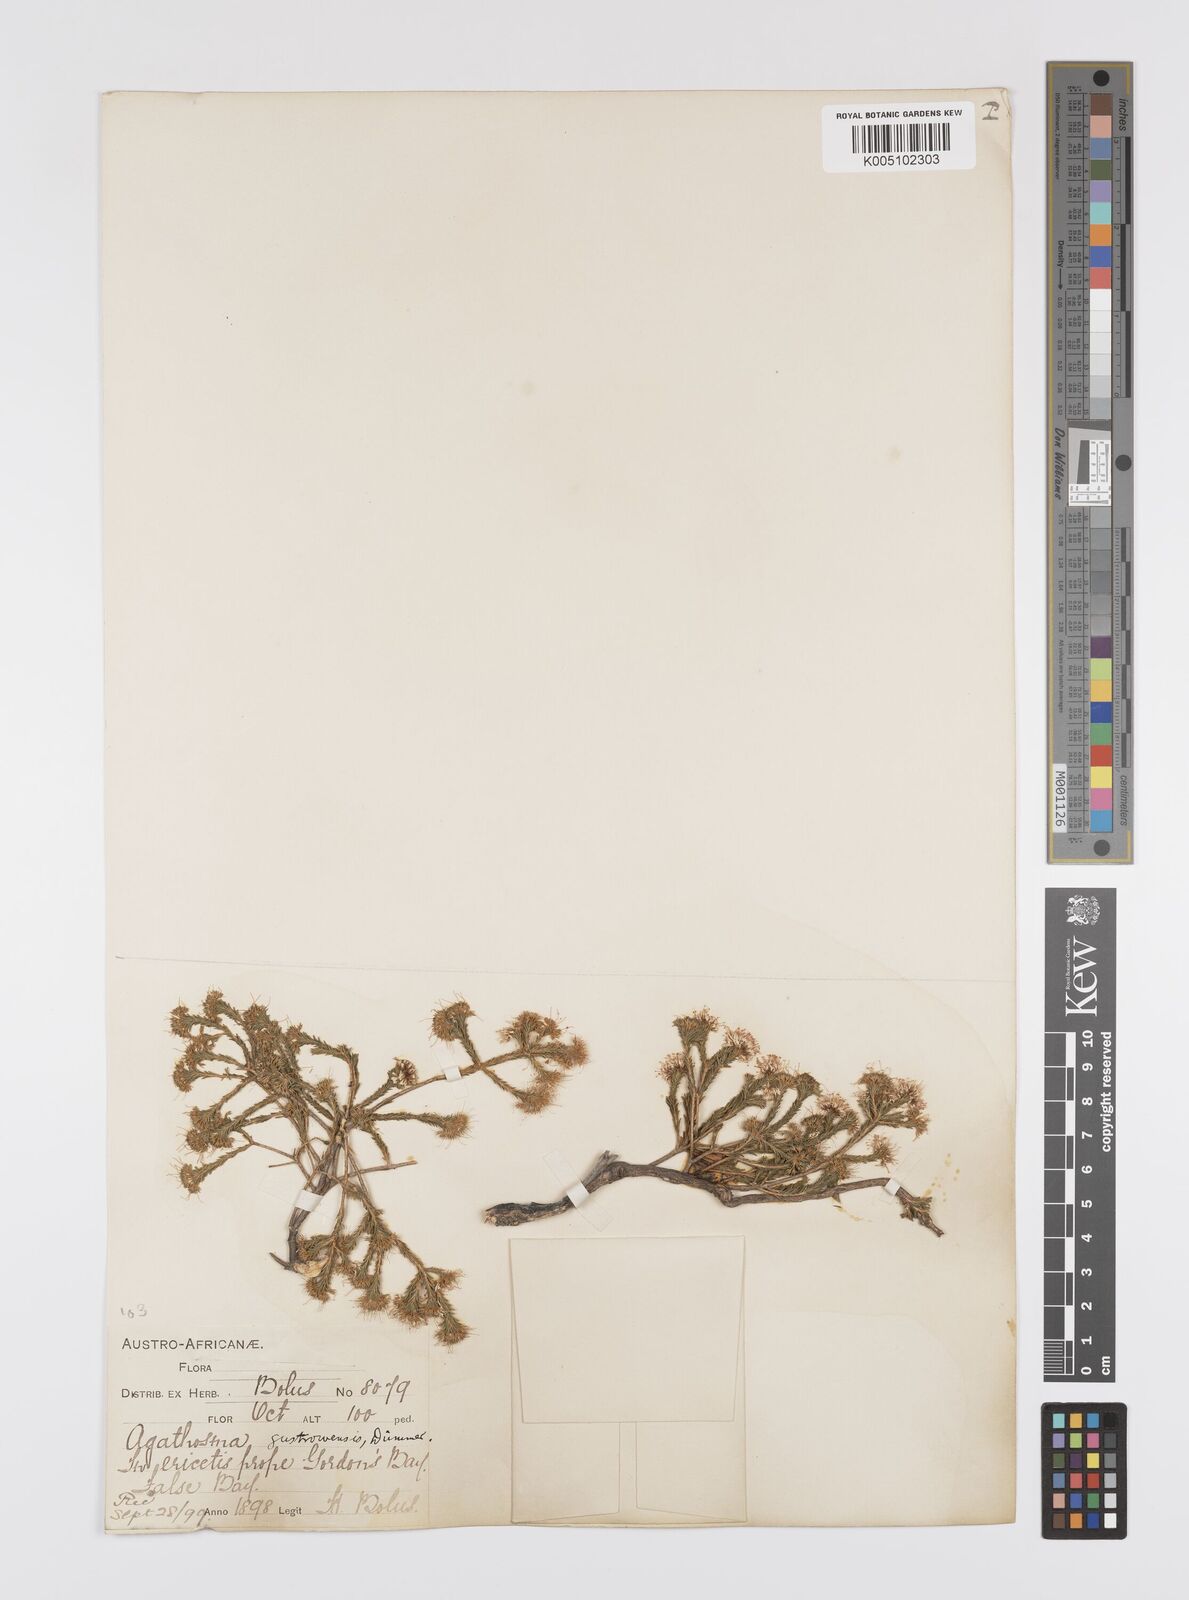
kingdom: Plantae
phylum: Tracheophyta
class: Magnoliopsida
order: Sapindales
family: Rutaceae
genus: Agathosma
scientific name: Agathosma capensis
